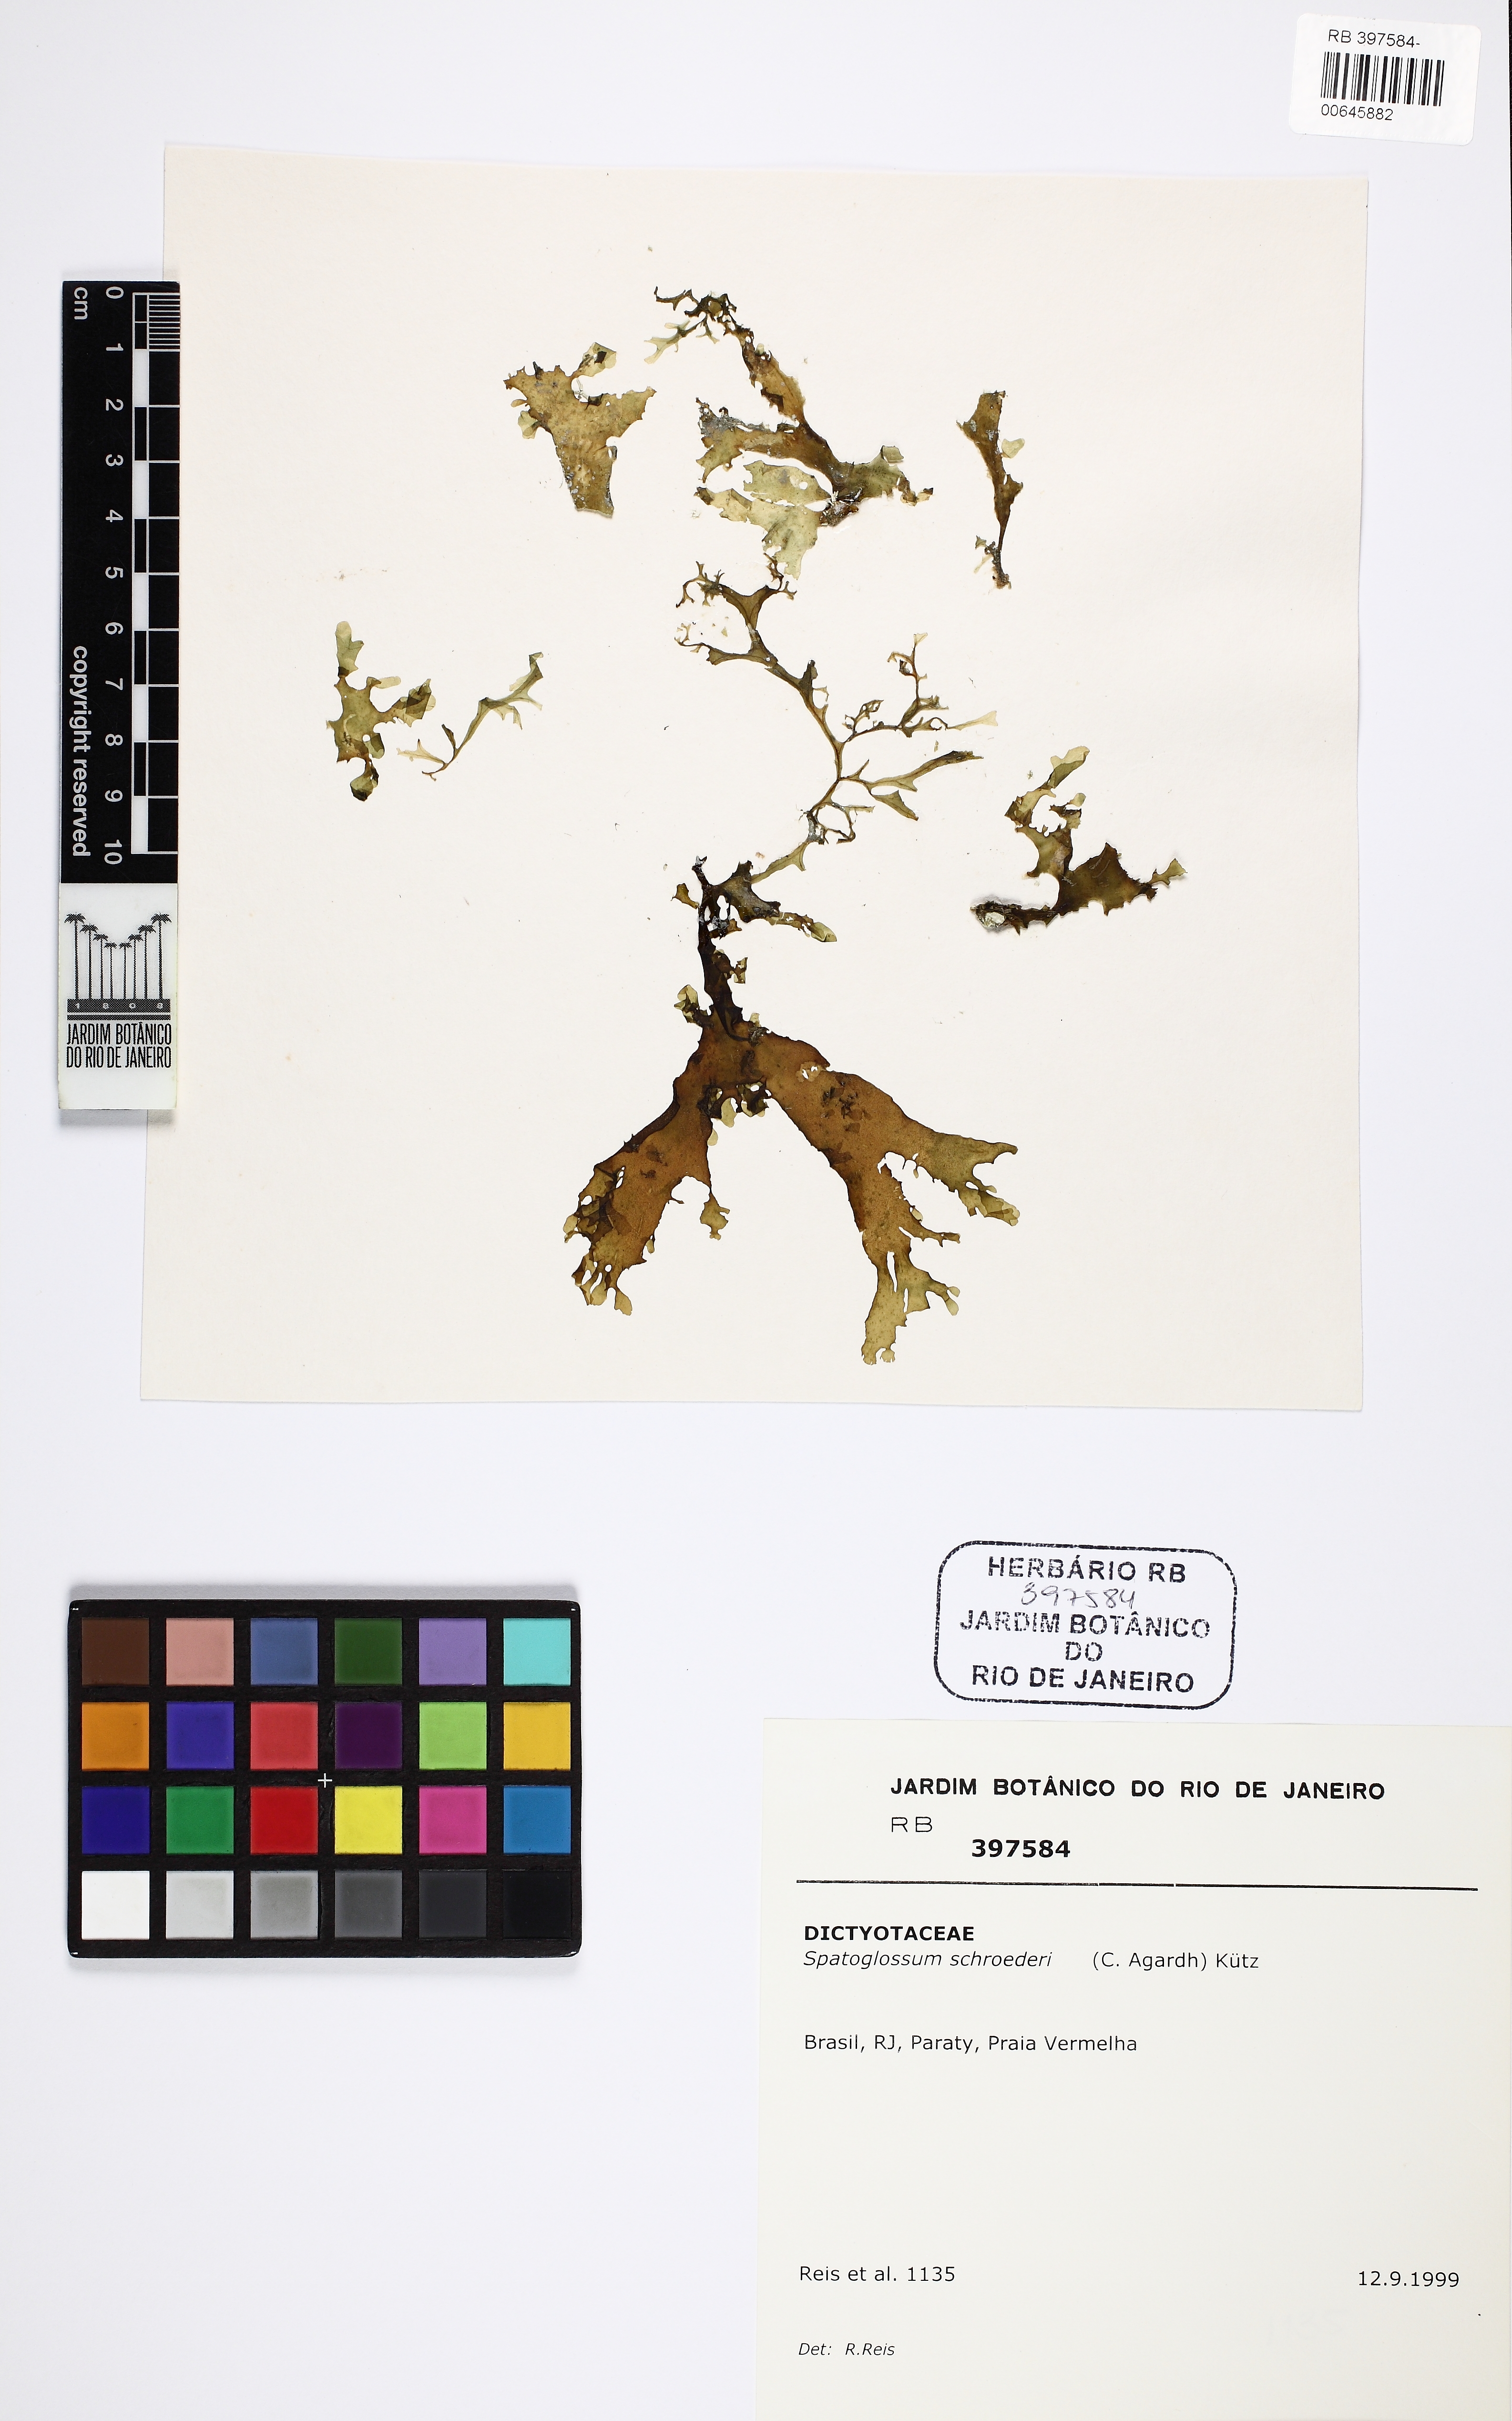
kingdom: Chromista
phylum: Ochrophyta
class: Phaeophyceae
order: Dictyotales
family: Dictyotaceae
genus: Spatoglossum
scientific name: Spatoglossum schroederi
